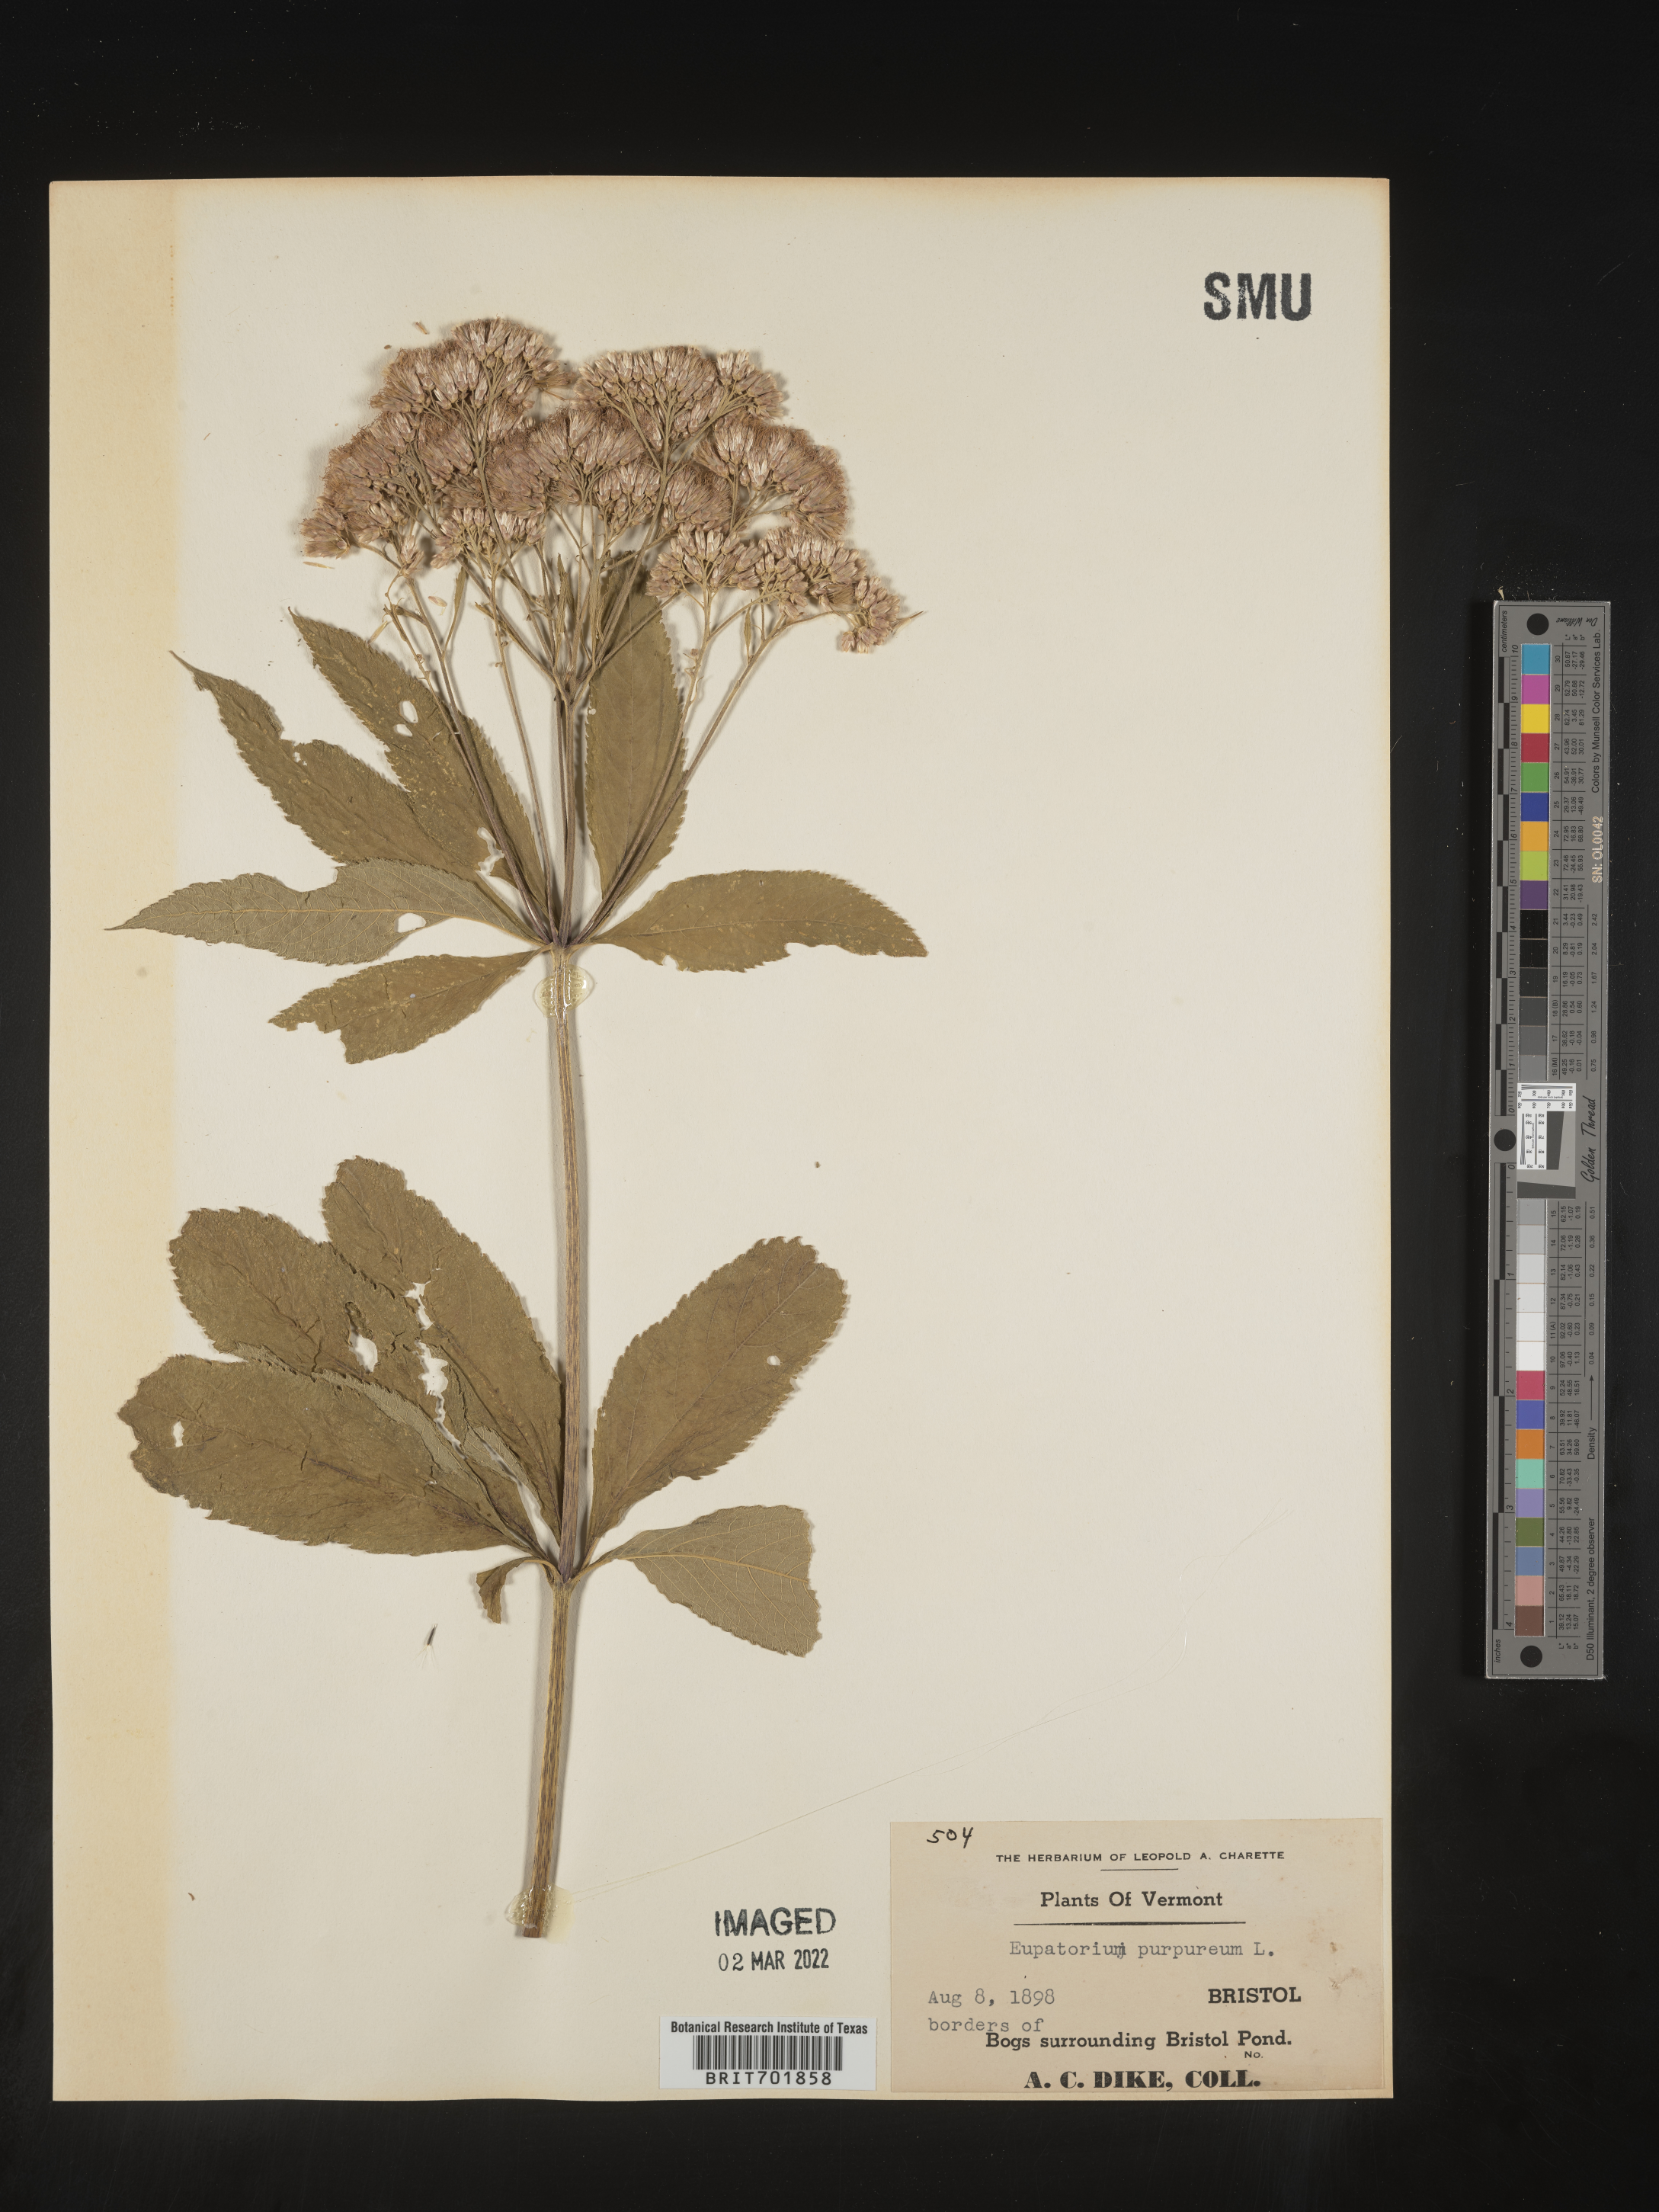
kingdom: Plantae
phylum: Tracheophyta
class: Magnoliopsida
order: Asterales
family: Asteraceae
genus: Eupatorium
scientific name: Eupatorium quaternum
